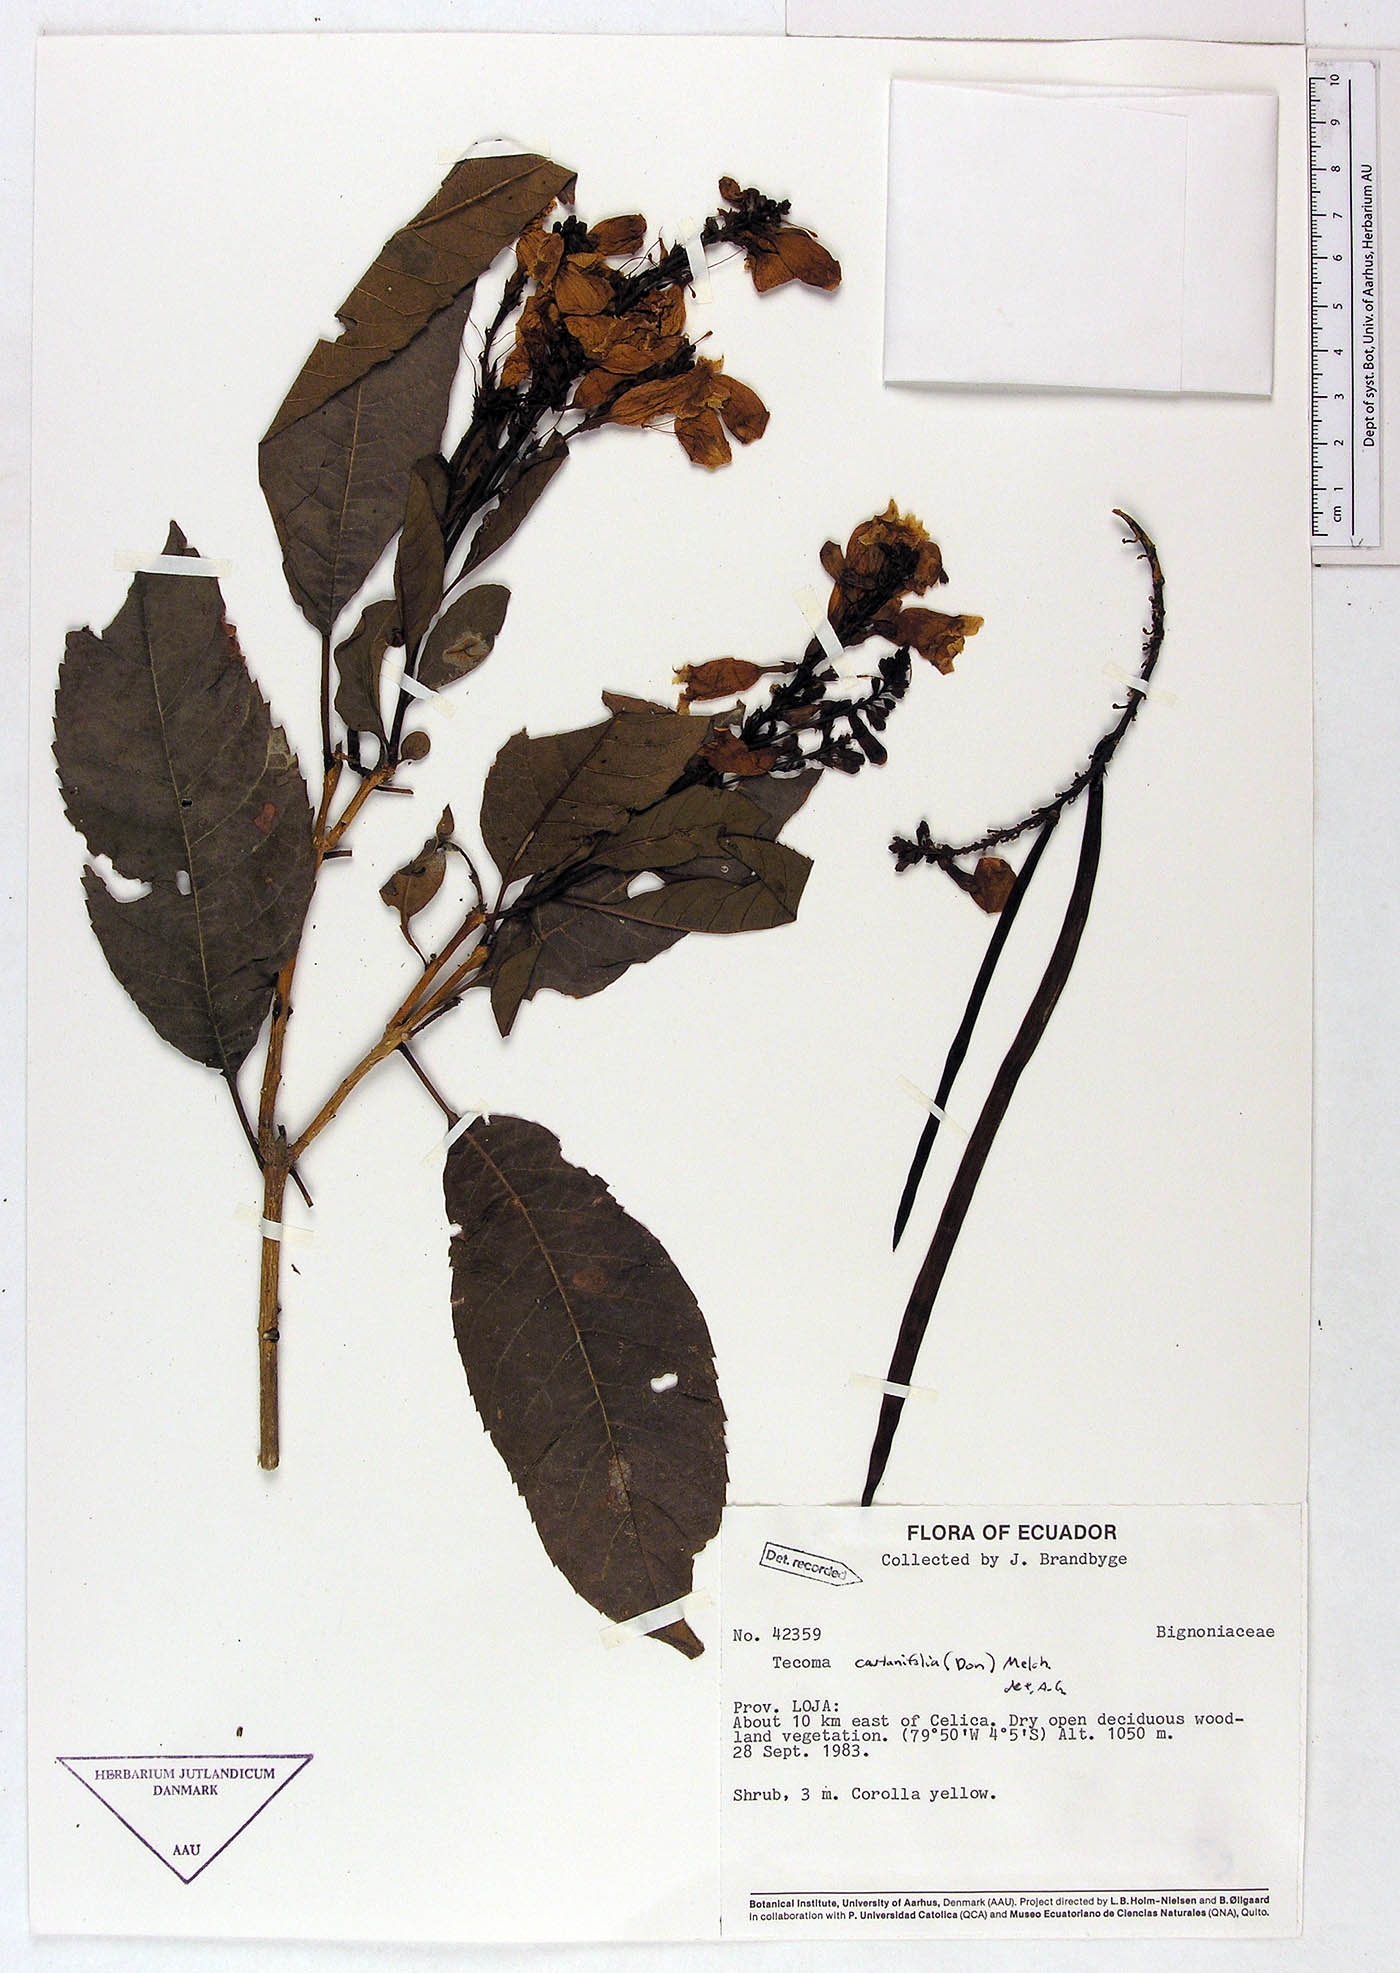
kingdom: Plantae
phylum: Tracheophyta
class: Magnoliopsida
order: Lamiales
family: Bignoniaceae
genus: Tecoma
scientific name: Tecoma castanifolia
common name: Chestnutleaf trumpetbush
